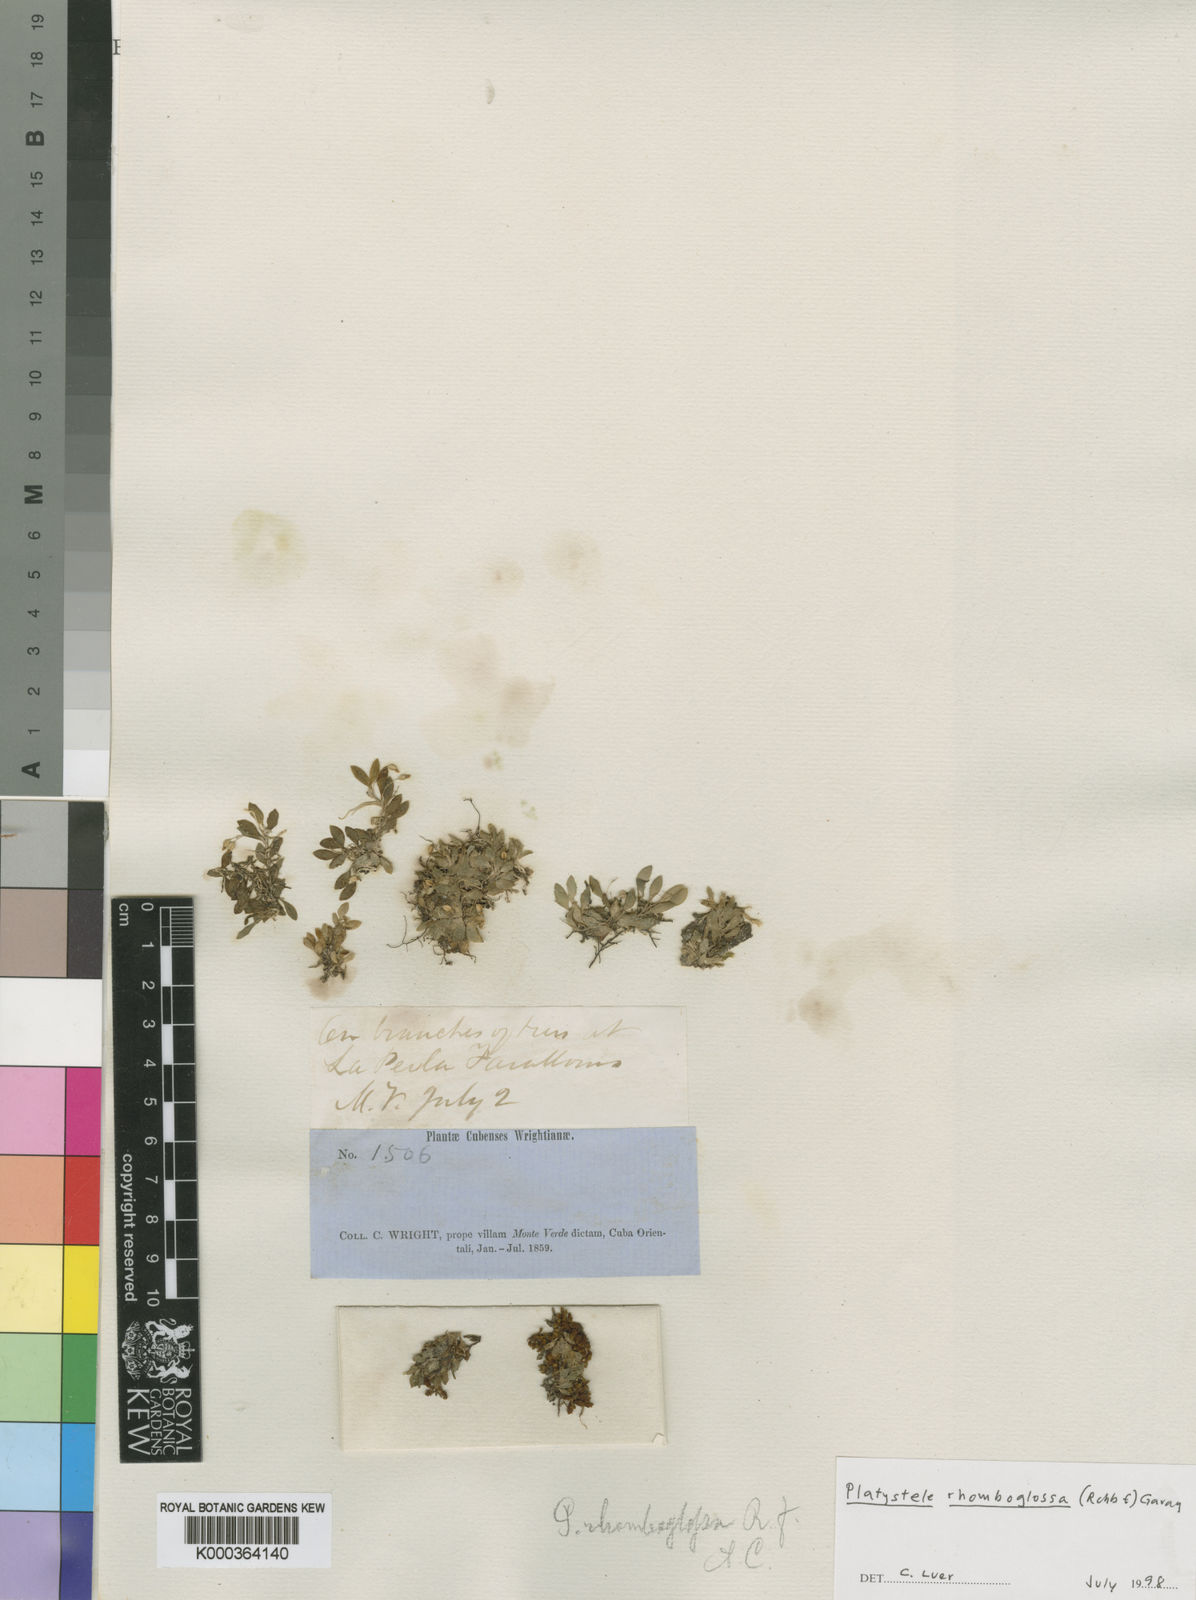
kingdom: Plantae
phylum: Tracheophyta
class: Liliopsida
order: Asparagales
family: Orchidaceae
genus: Platystele
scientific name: Platystele
